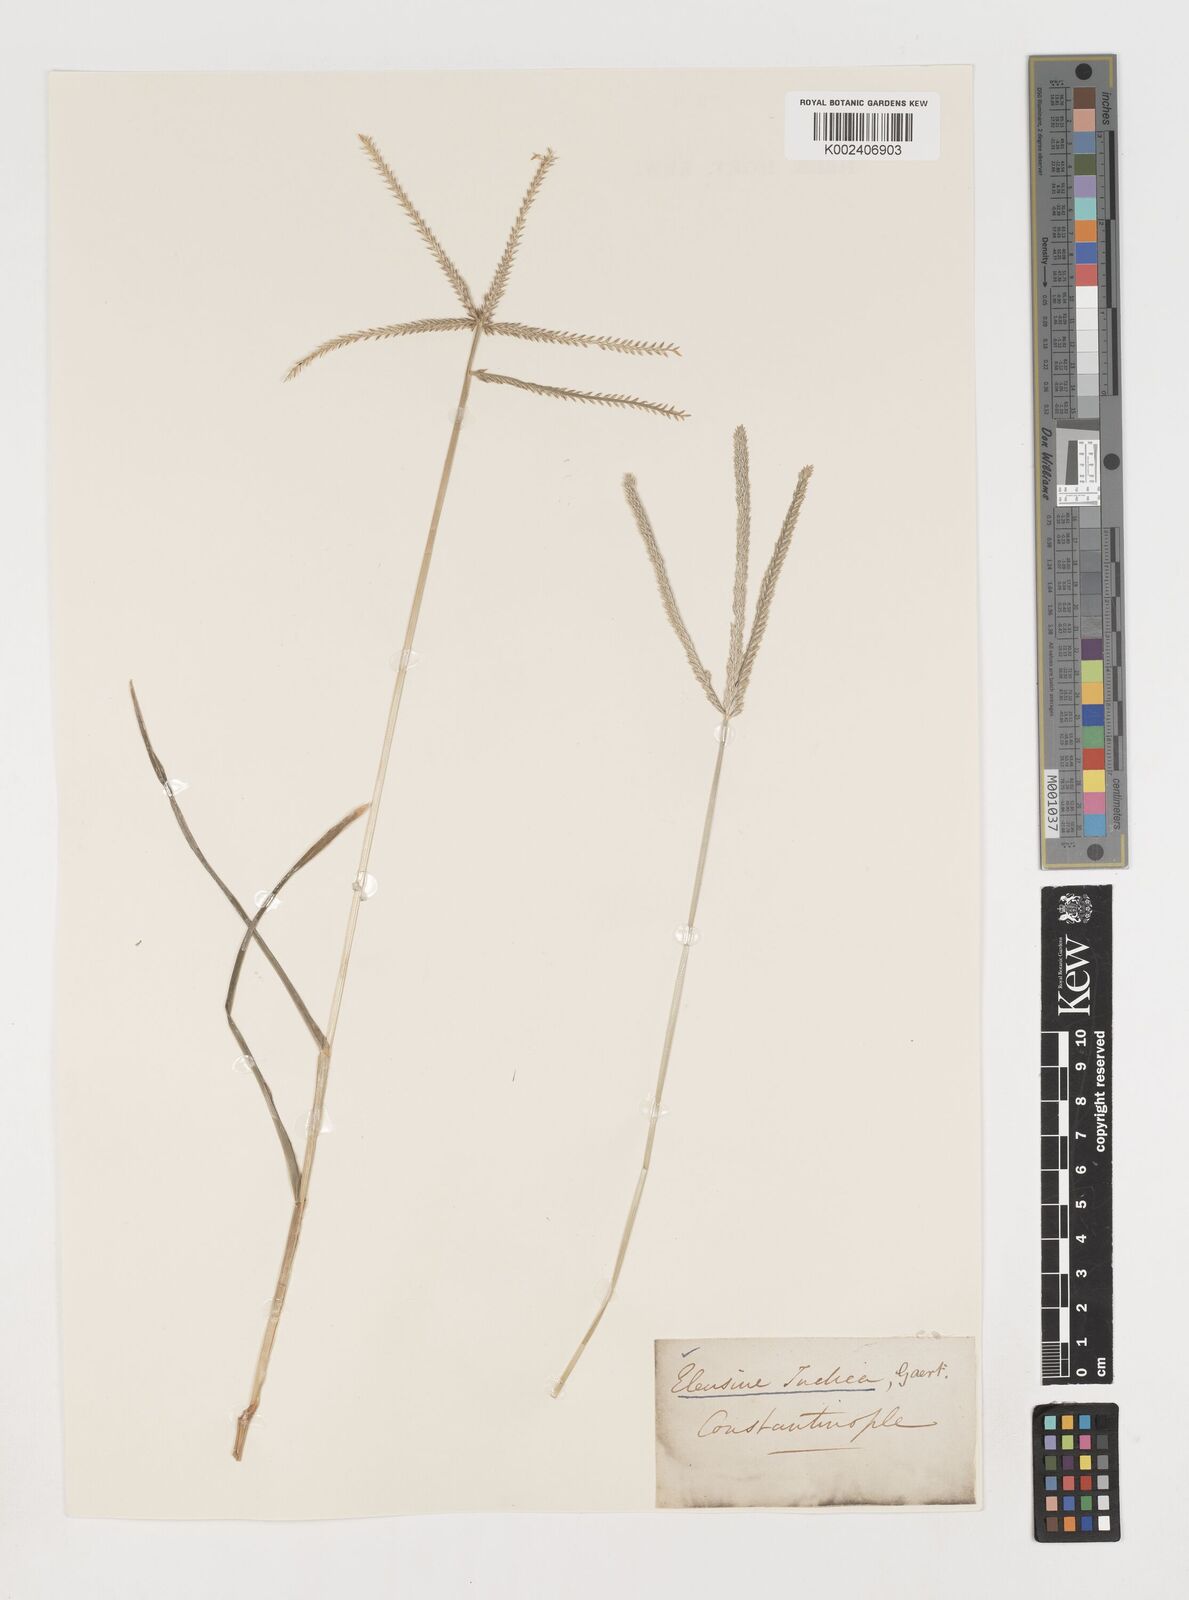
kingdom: Plantae
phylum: Tracheophyta
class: Liliopsida
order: Poales
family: Poaceae
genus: Eleusine
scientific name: Eleusine indica
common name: Yard-grass
